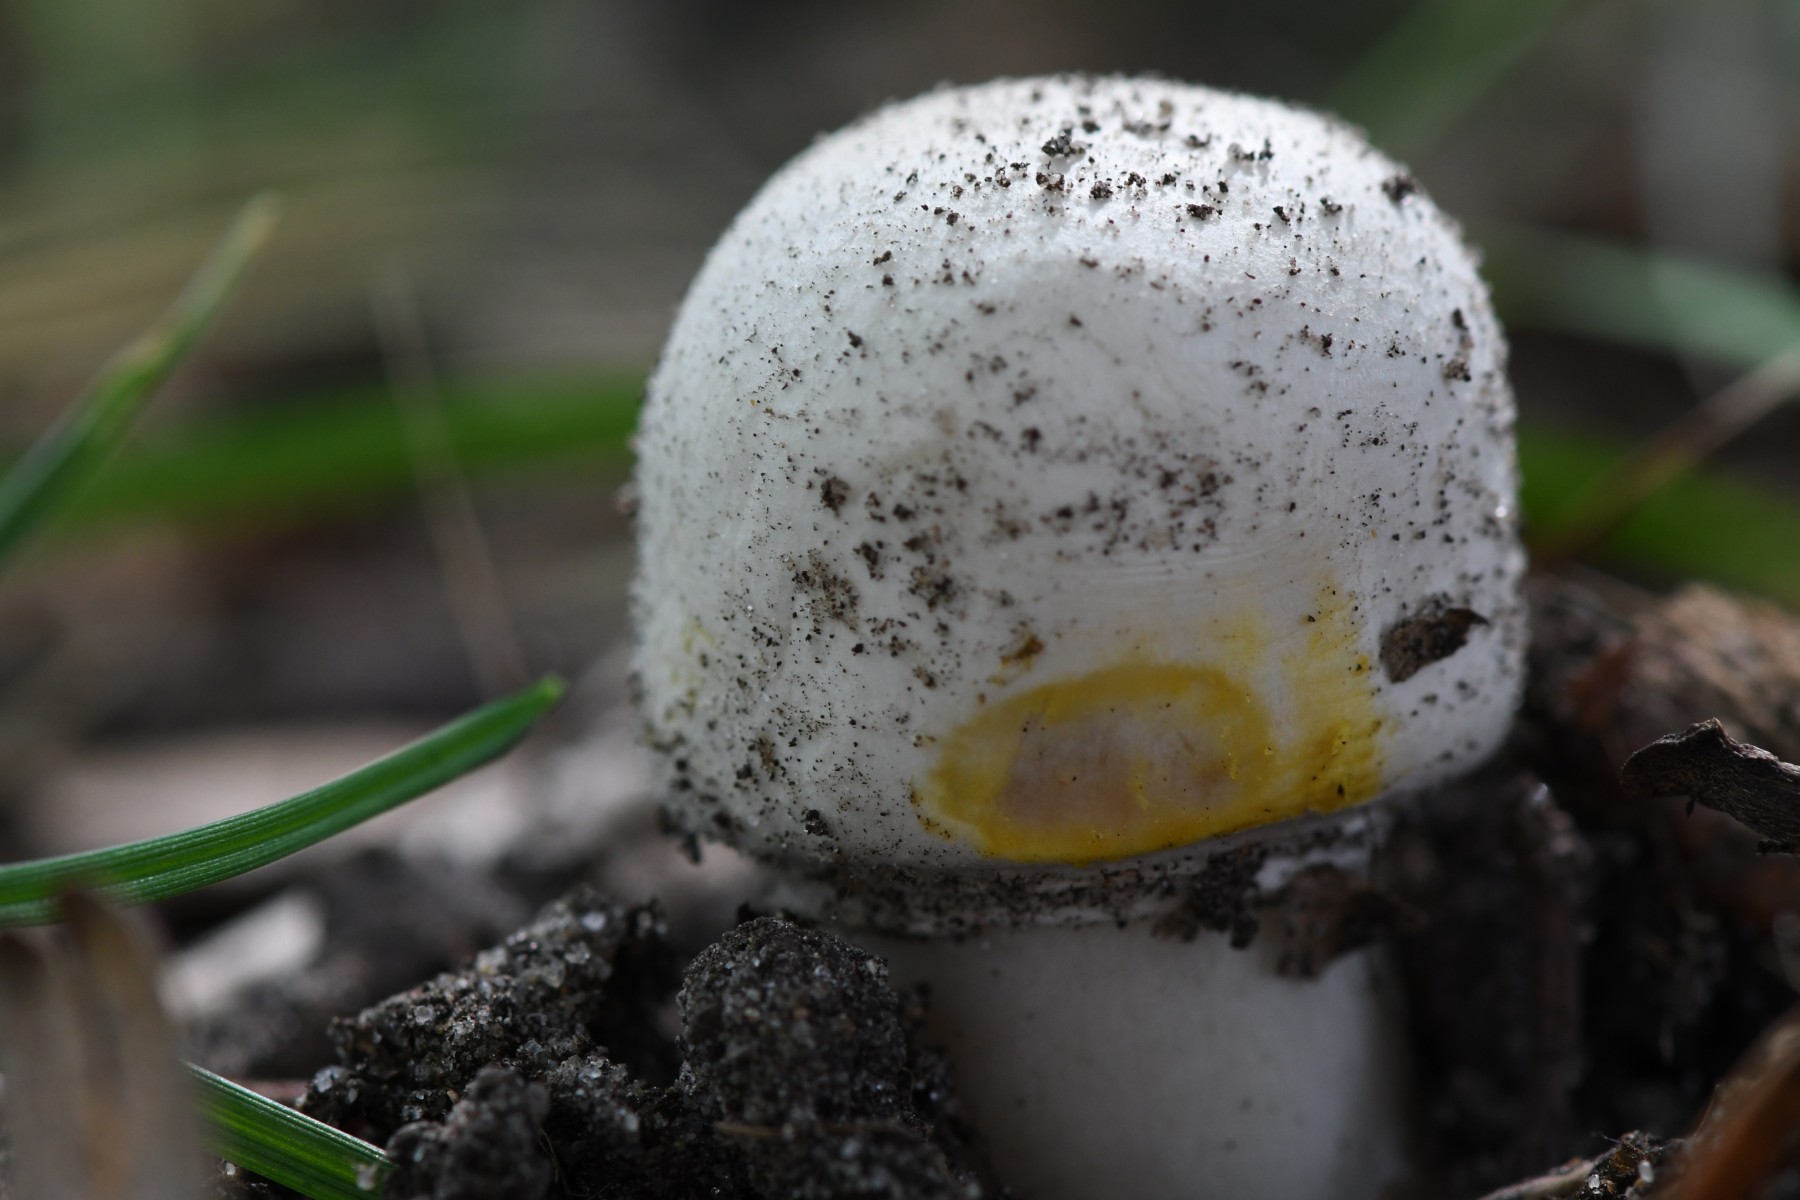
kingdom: Fungi
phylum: Basidiomycota
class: Agaricomycetes
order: Agaricales
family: Agaricaceae
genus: Agaricus
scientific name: Agaricus xanthodermus
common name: karbol-champignon
